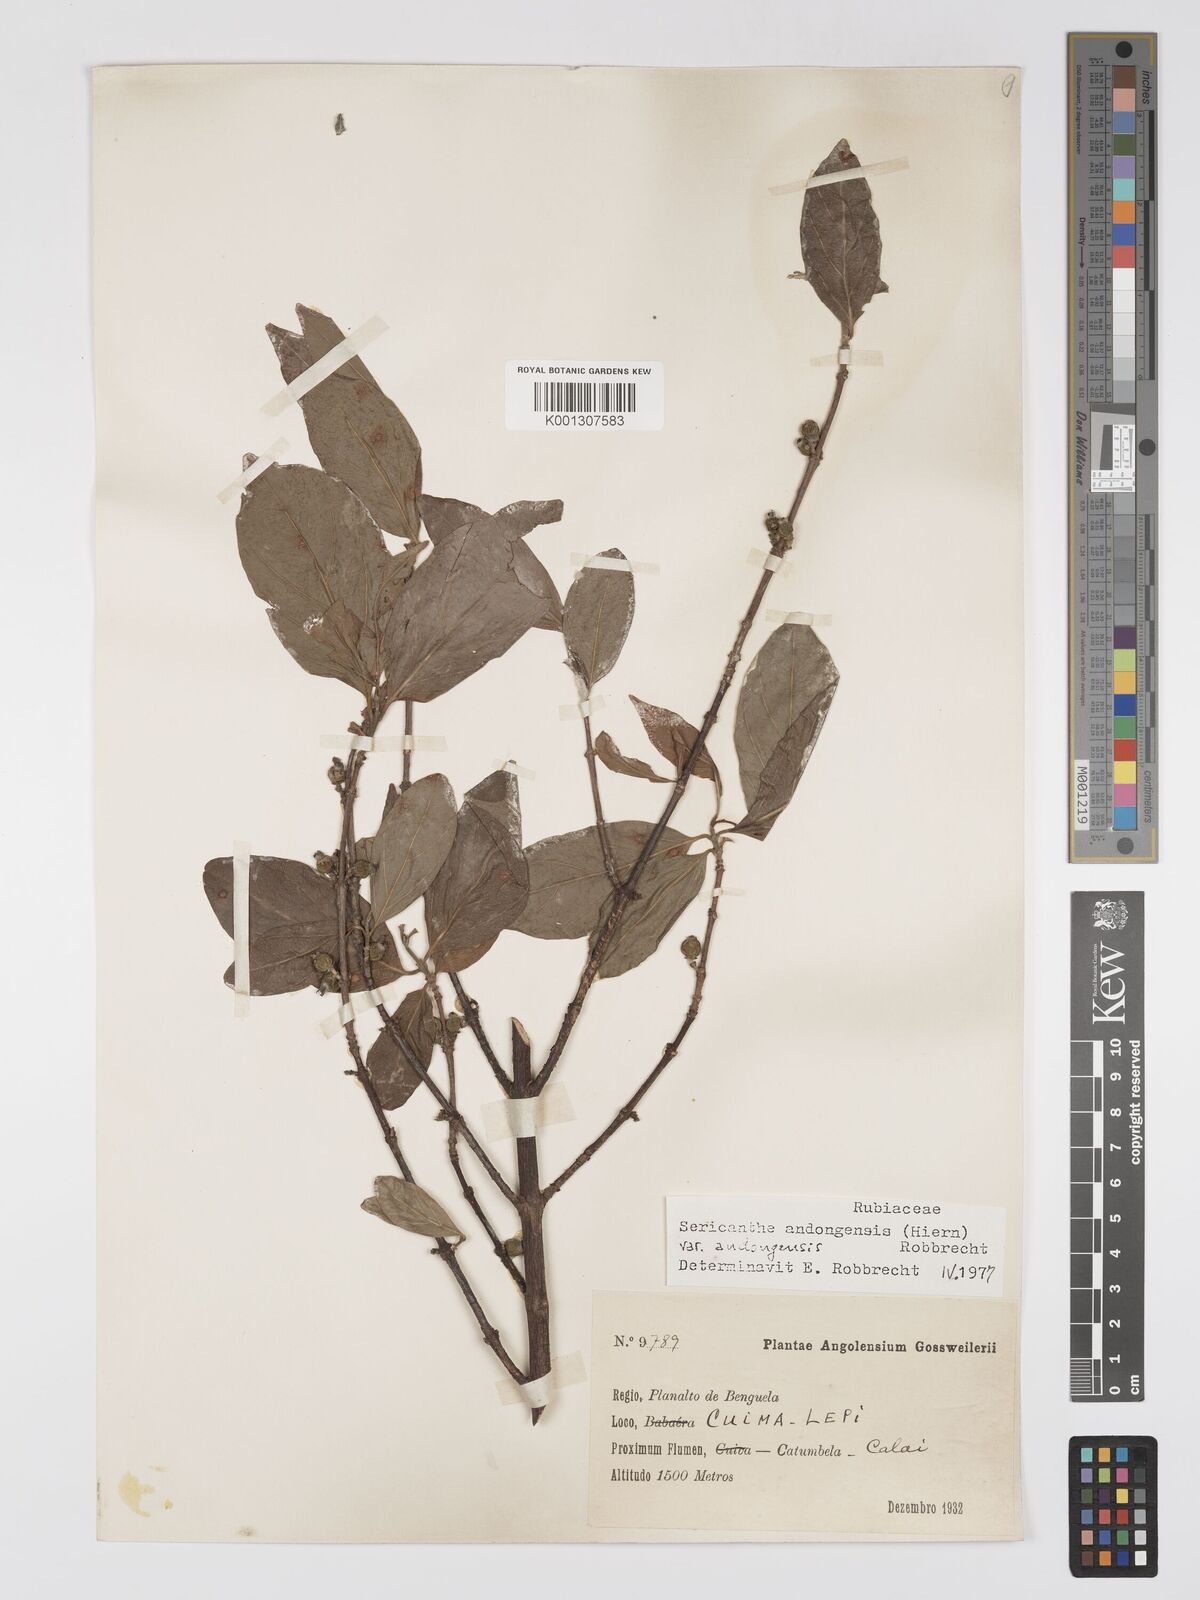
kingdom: Plantae
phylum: Tracheophyta
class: Magnoliopsida
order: Gentianales
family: Rubiaceae
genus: Sericanthe
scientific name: Sericanthe andongensis
